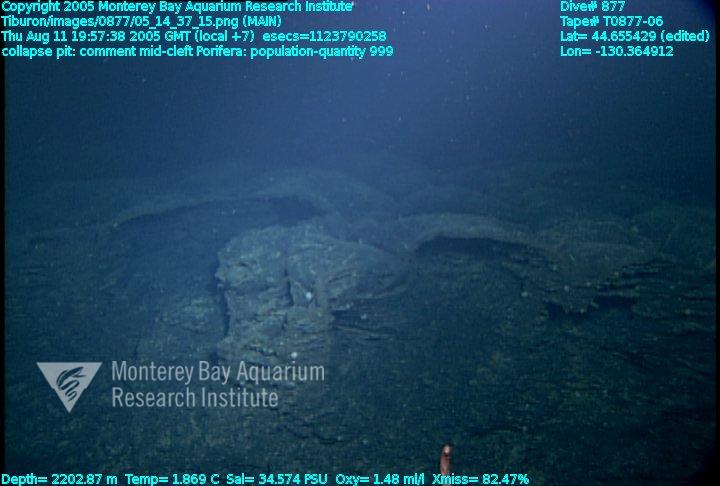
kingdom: Animalia
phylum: Porifera
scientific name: Porifera
